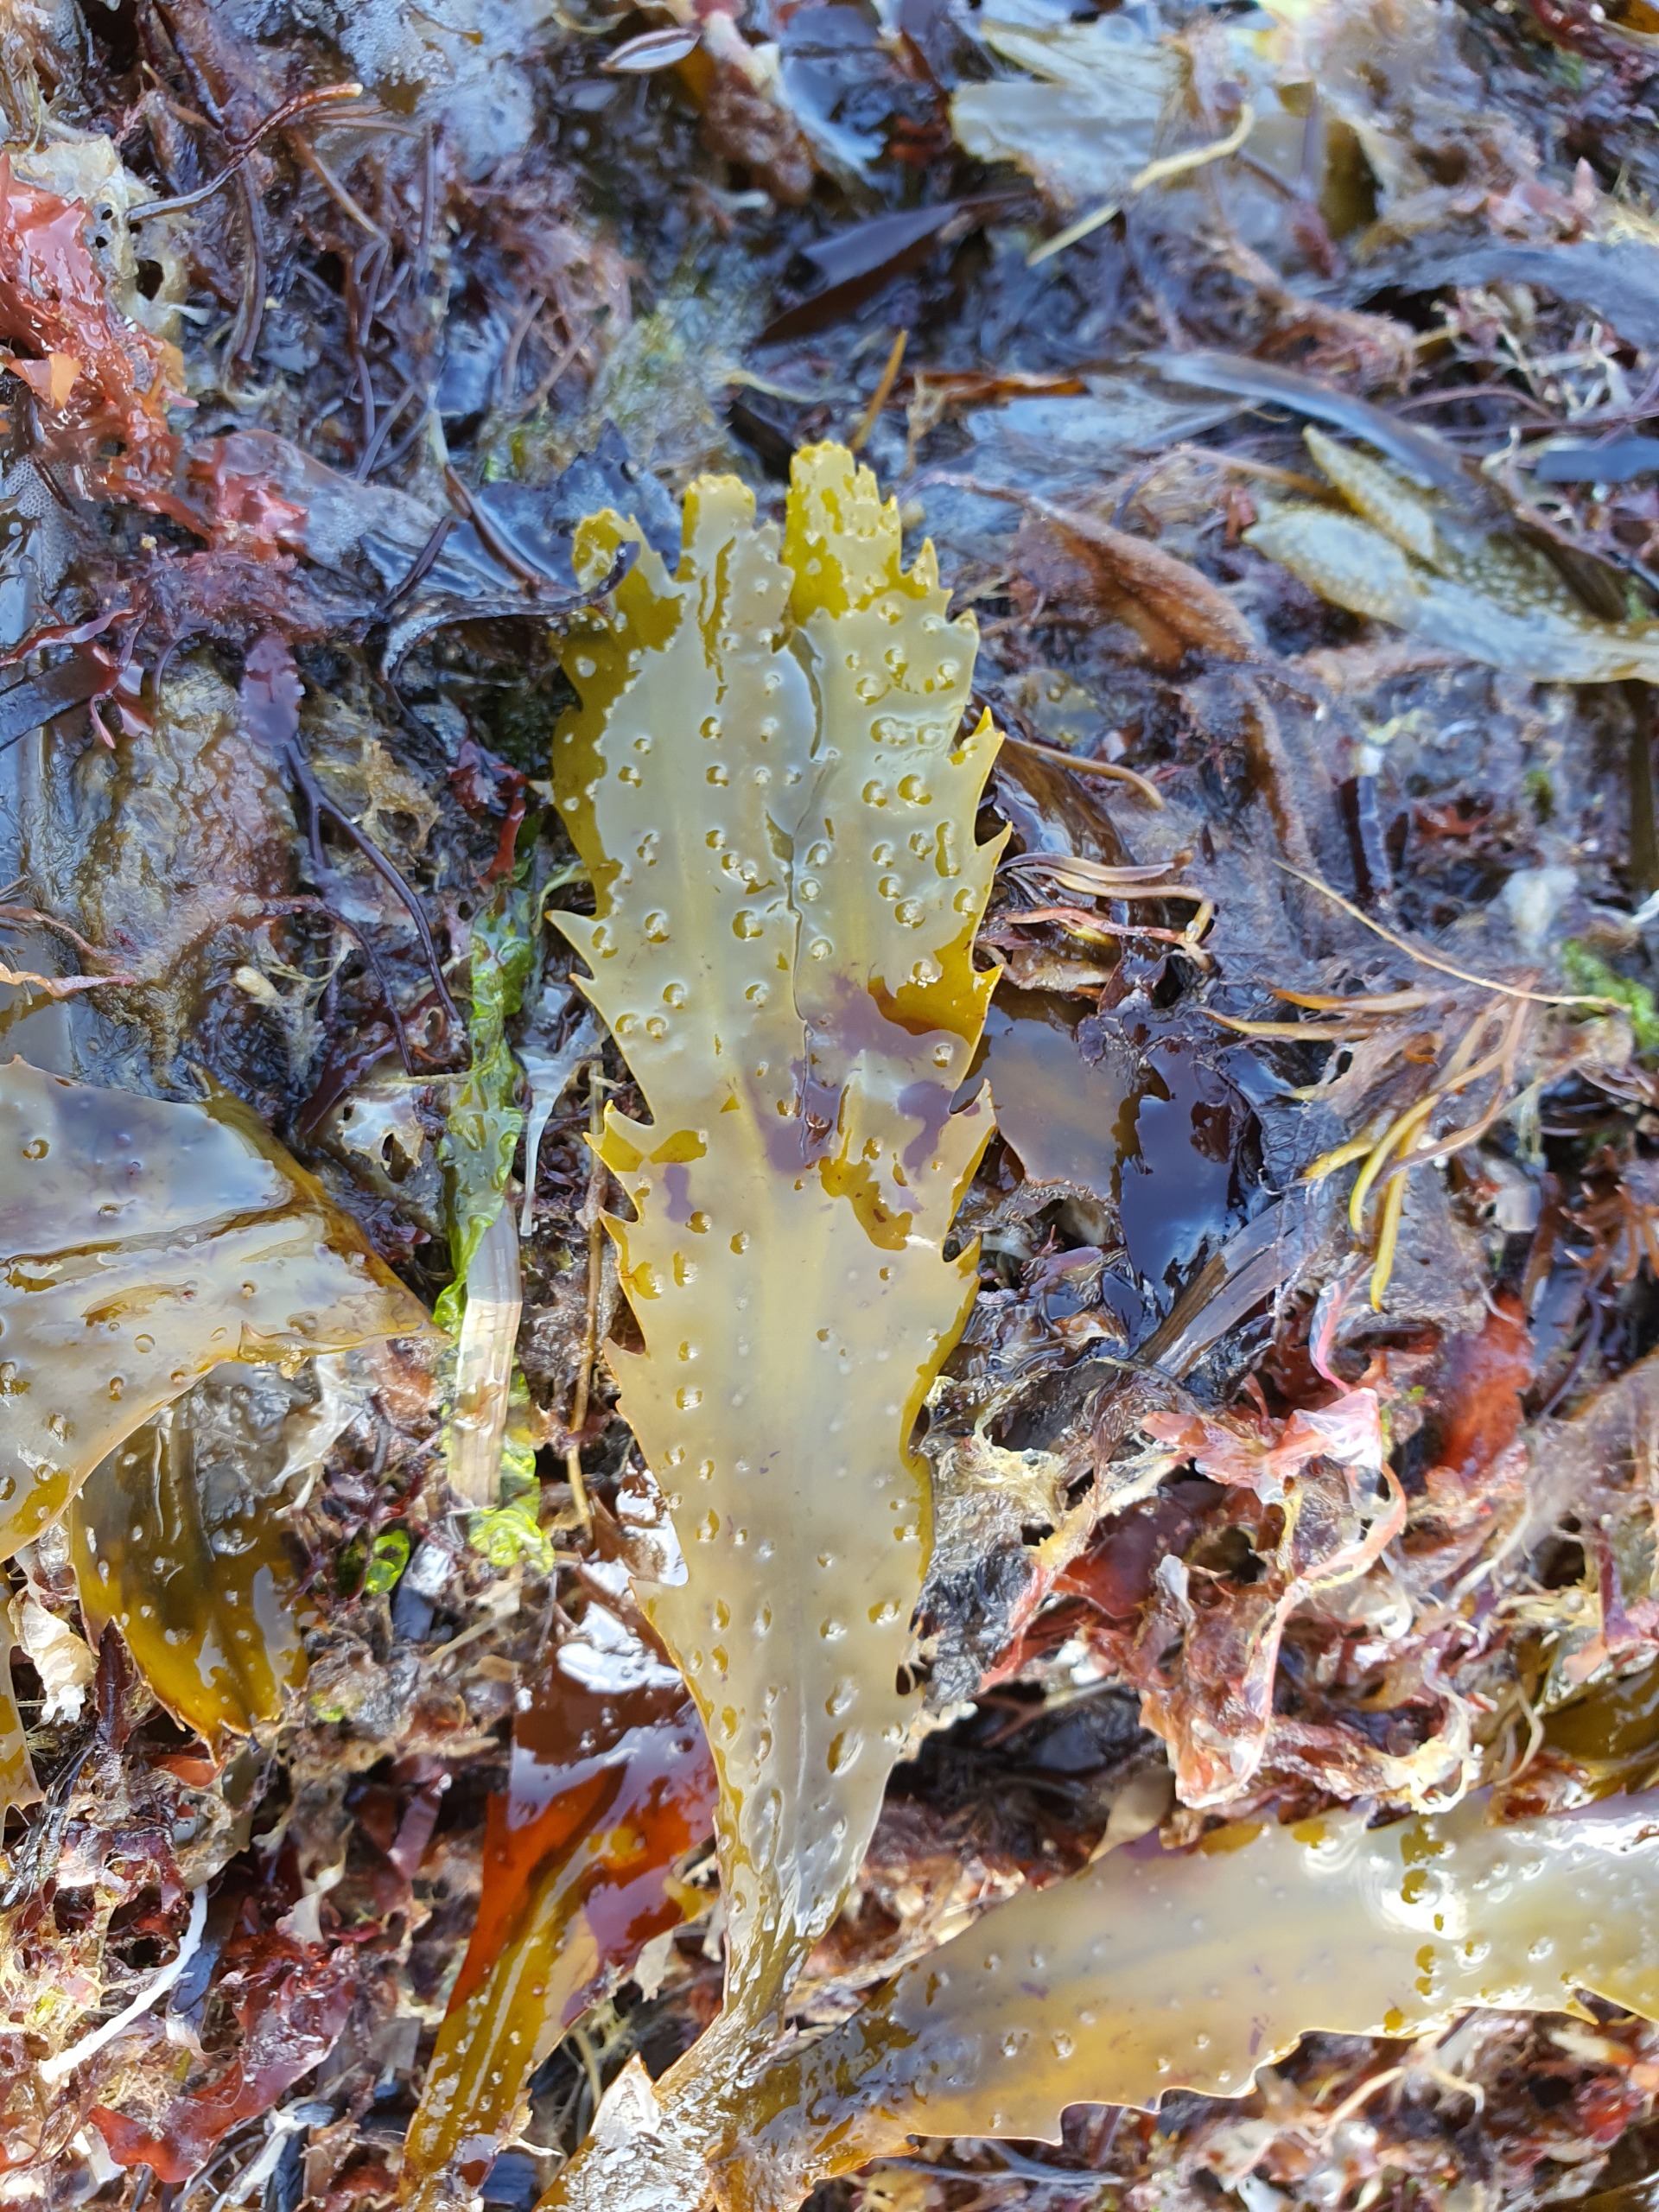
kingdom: Chromista
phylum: Ochrophyta
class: Phaeophyceae
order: Fucales
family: Fucaceae
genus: Fucus
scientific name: Fucus serratus
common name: Savtang
